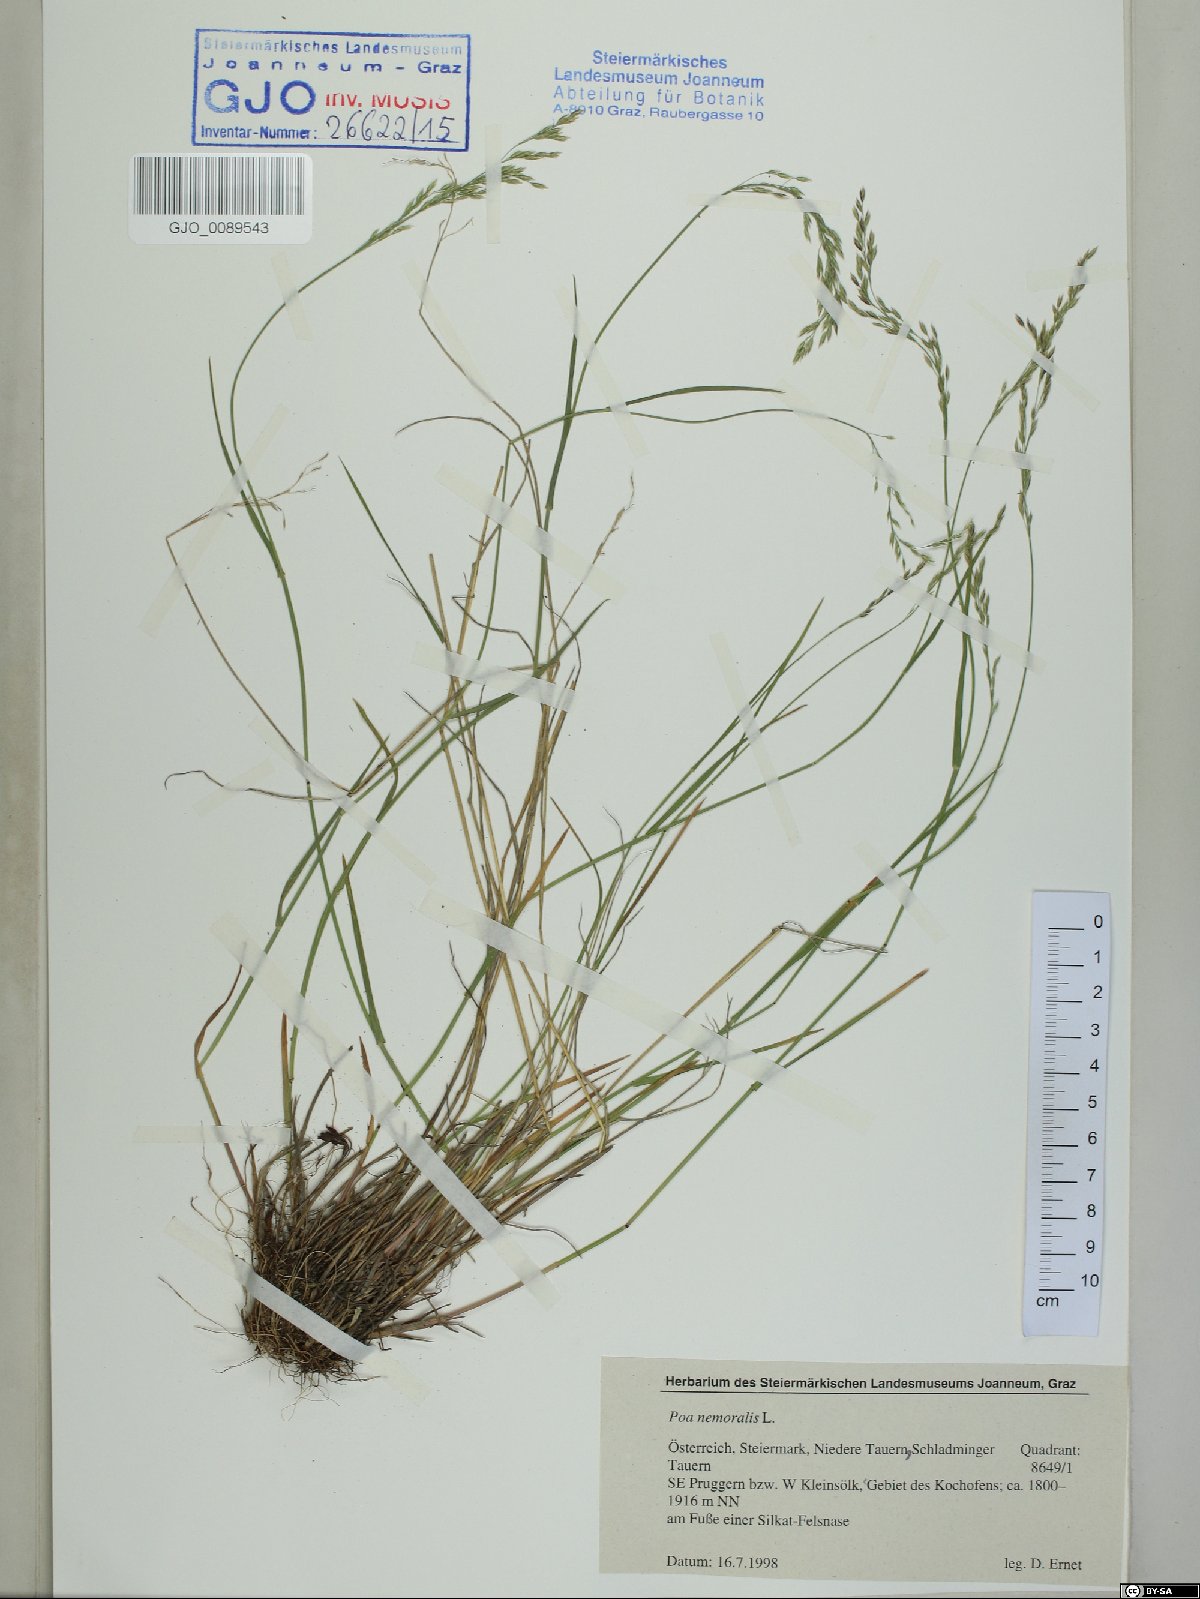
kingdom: Plantae
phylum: Tracheophyta
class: Liliopsida
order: Poales
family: Poaceae
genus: Poa
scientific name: Poa nemoralis
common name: Wood bluegrass
